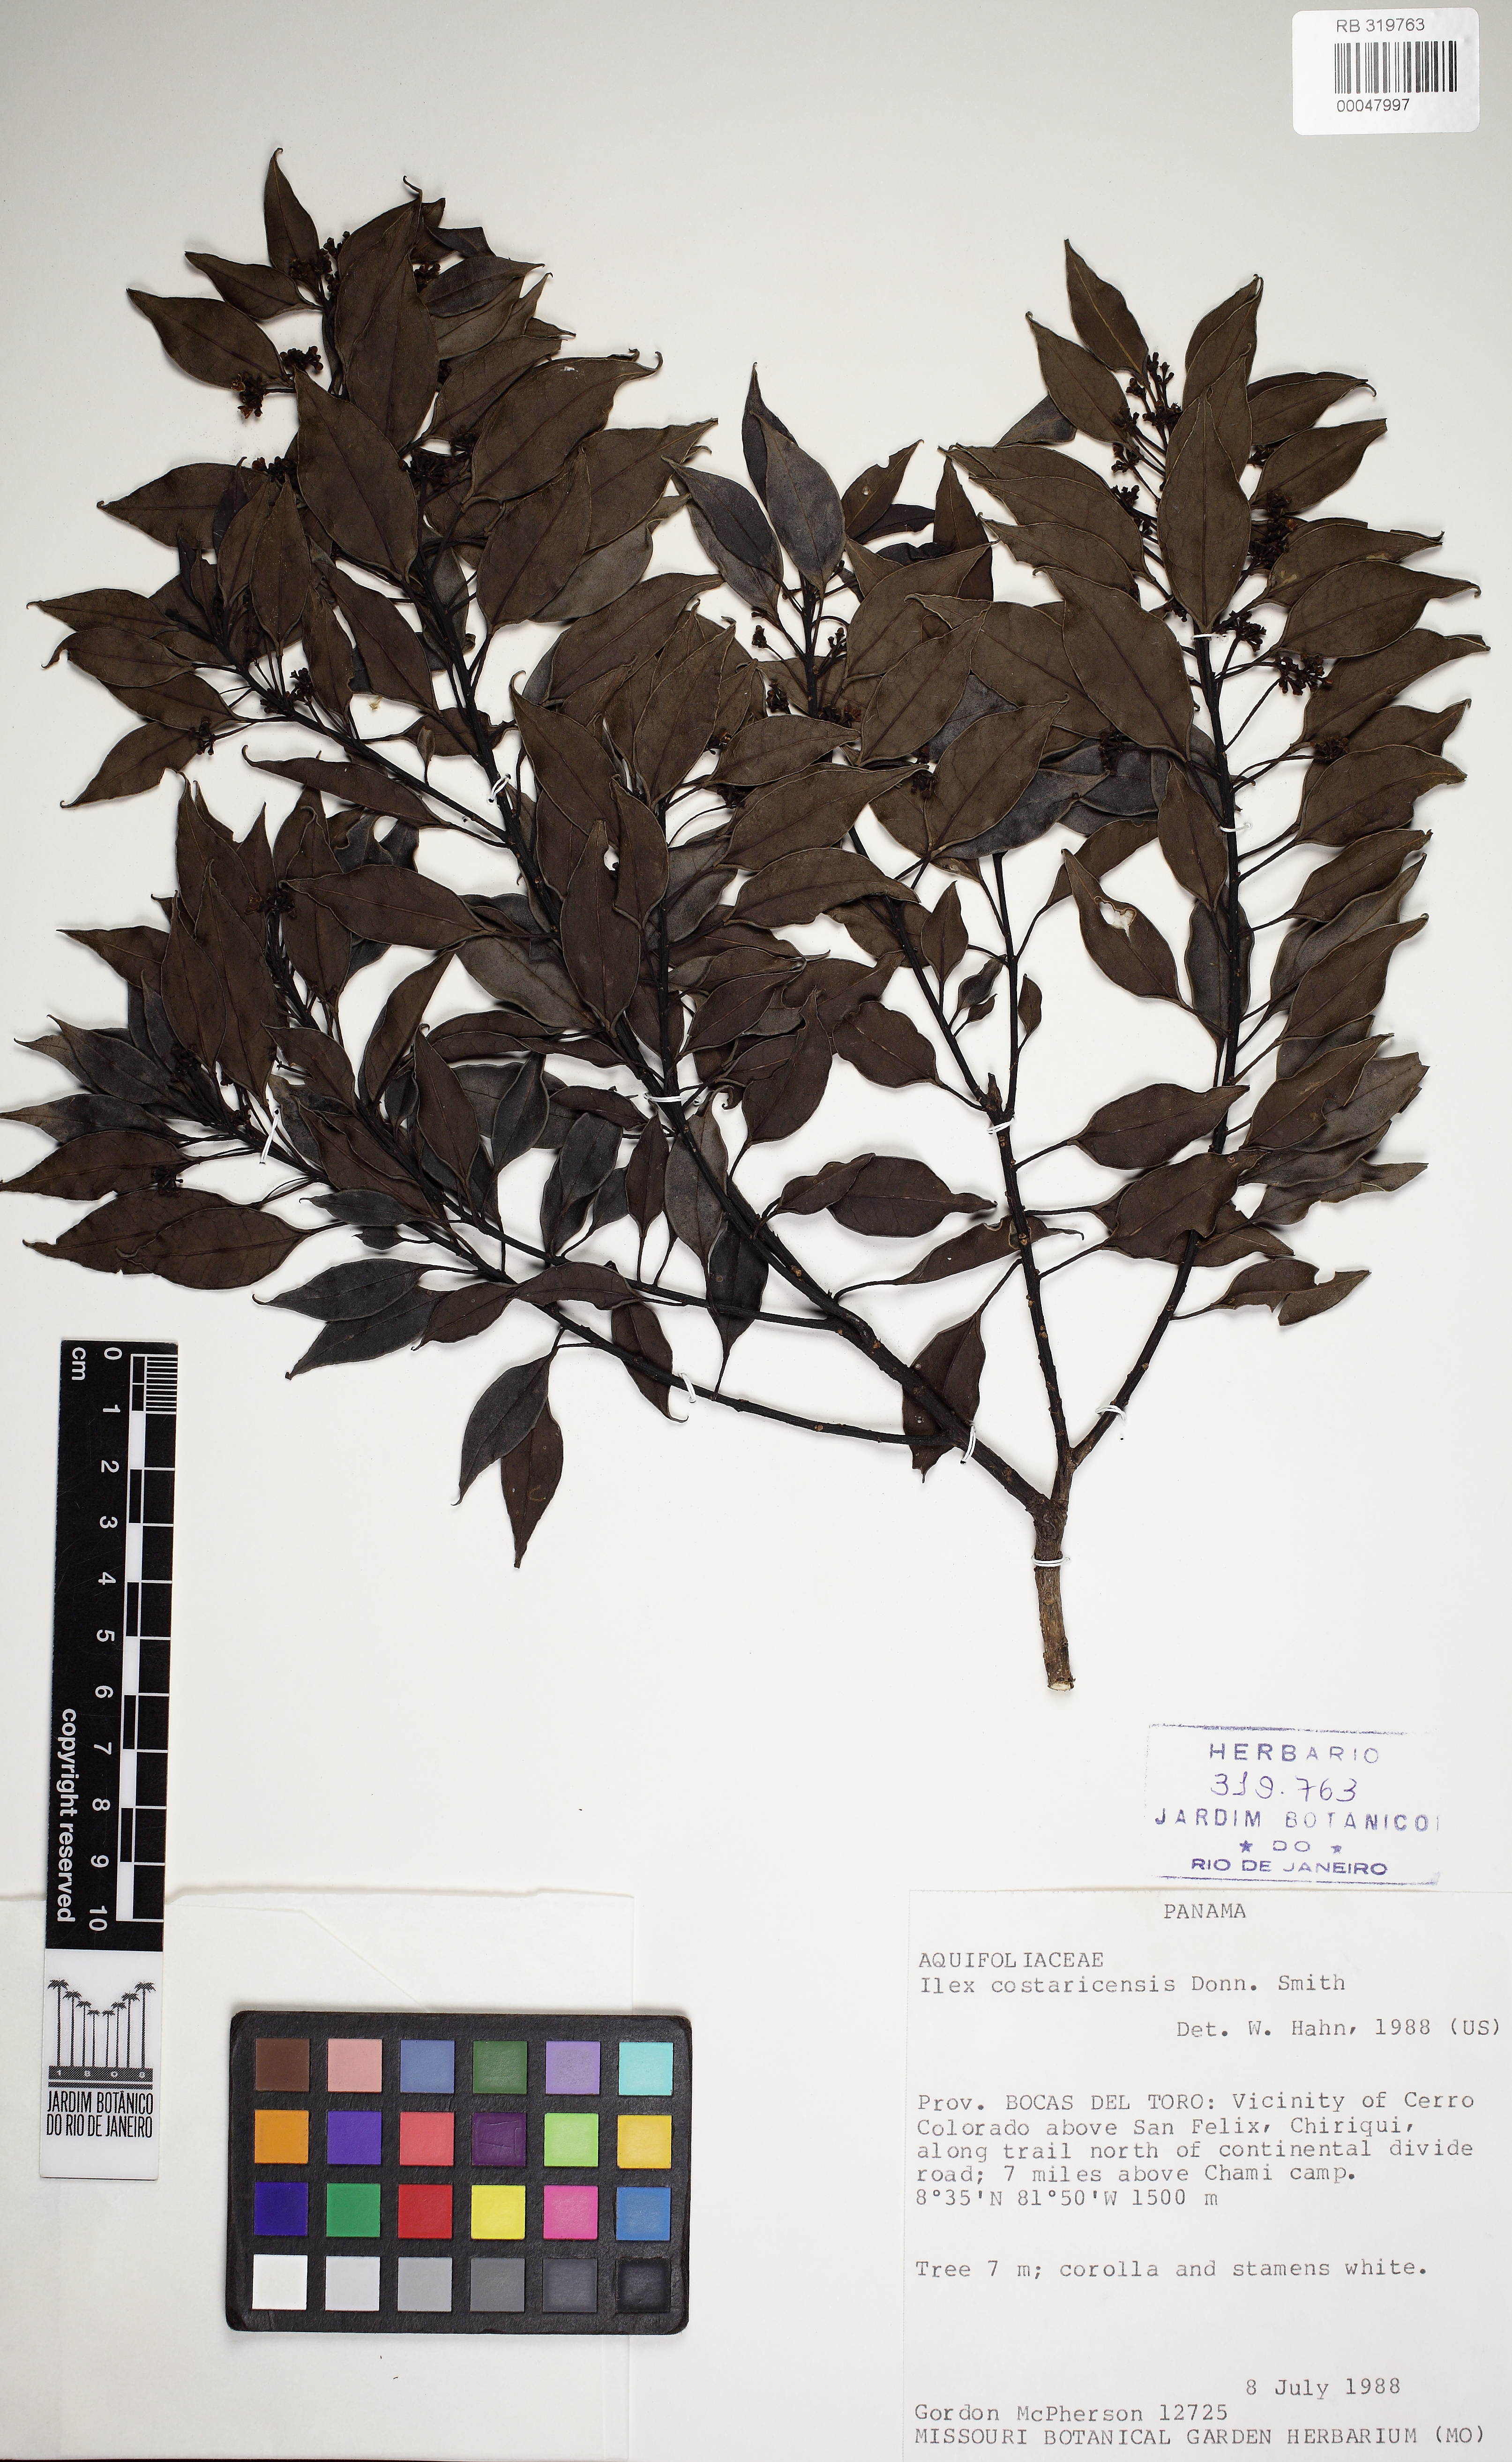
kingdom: Plantae
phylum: Tracheophyta
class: Magnoliopsida
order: Aquifoliales
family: Aquifoliaceae
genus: Ilex
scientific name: Ilex costaricensis
